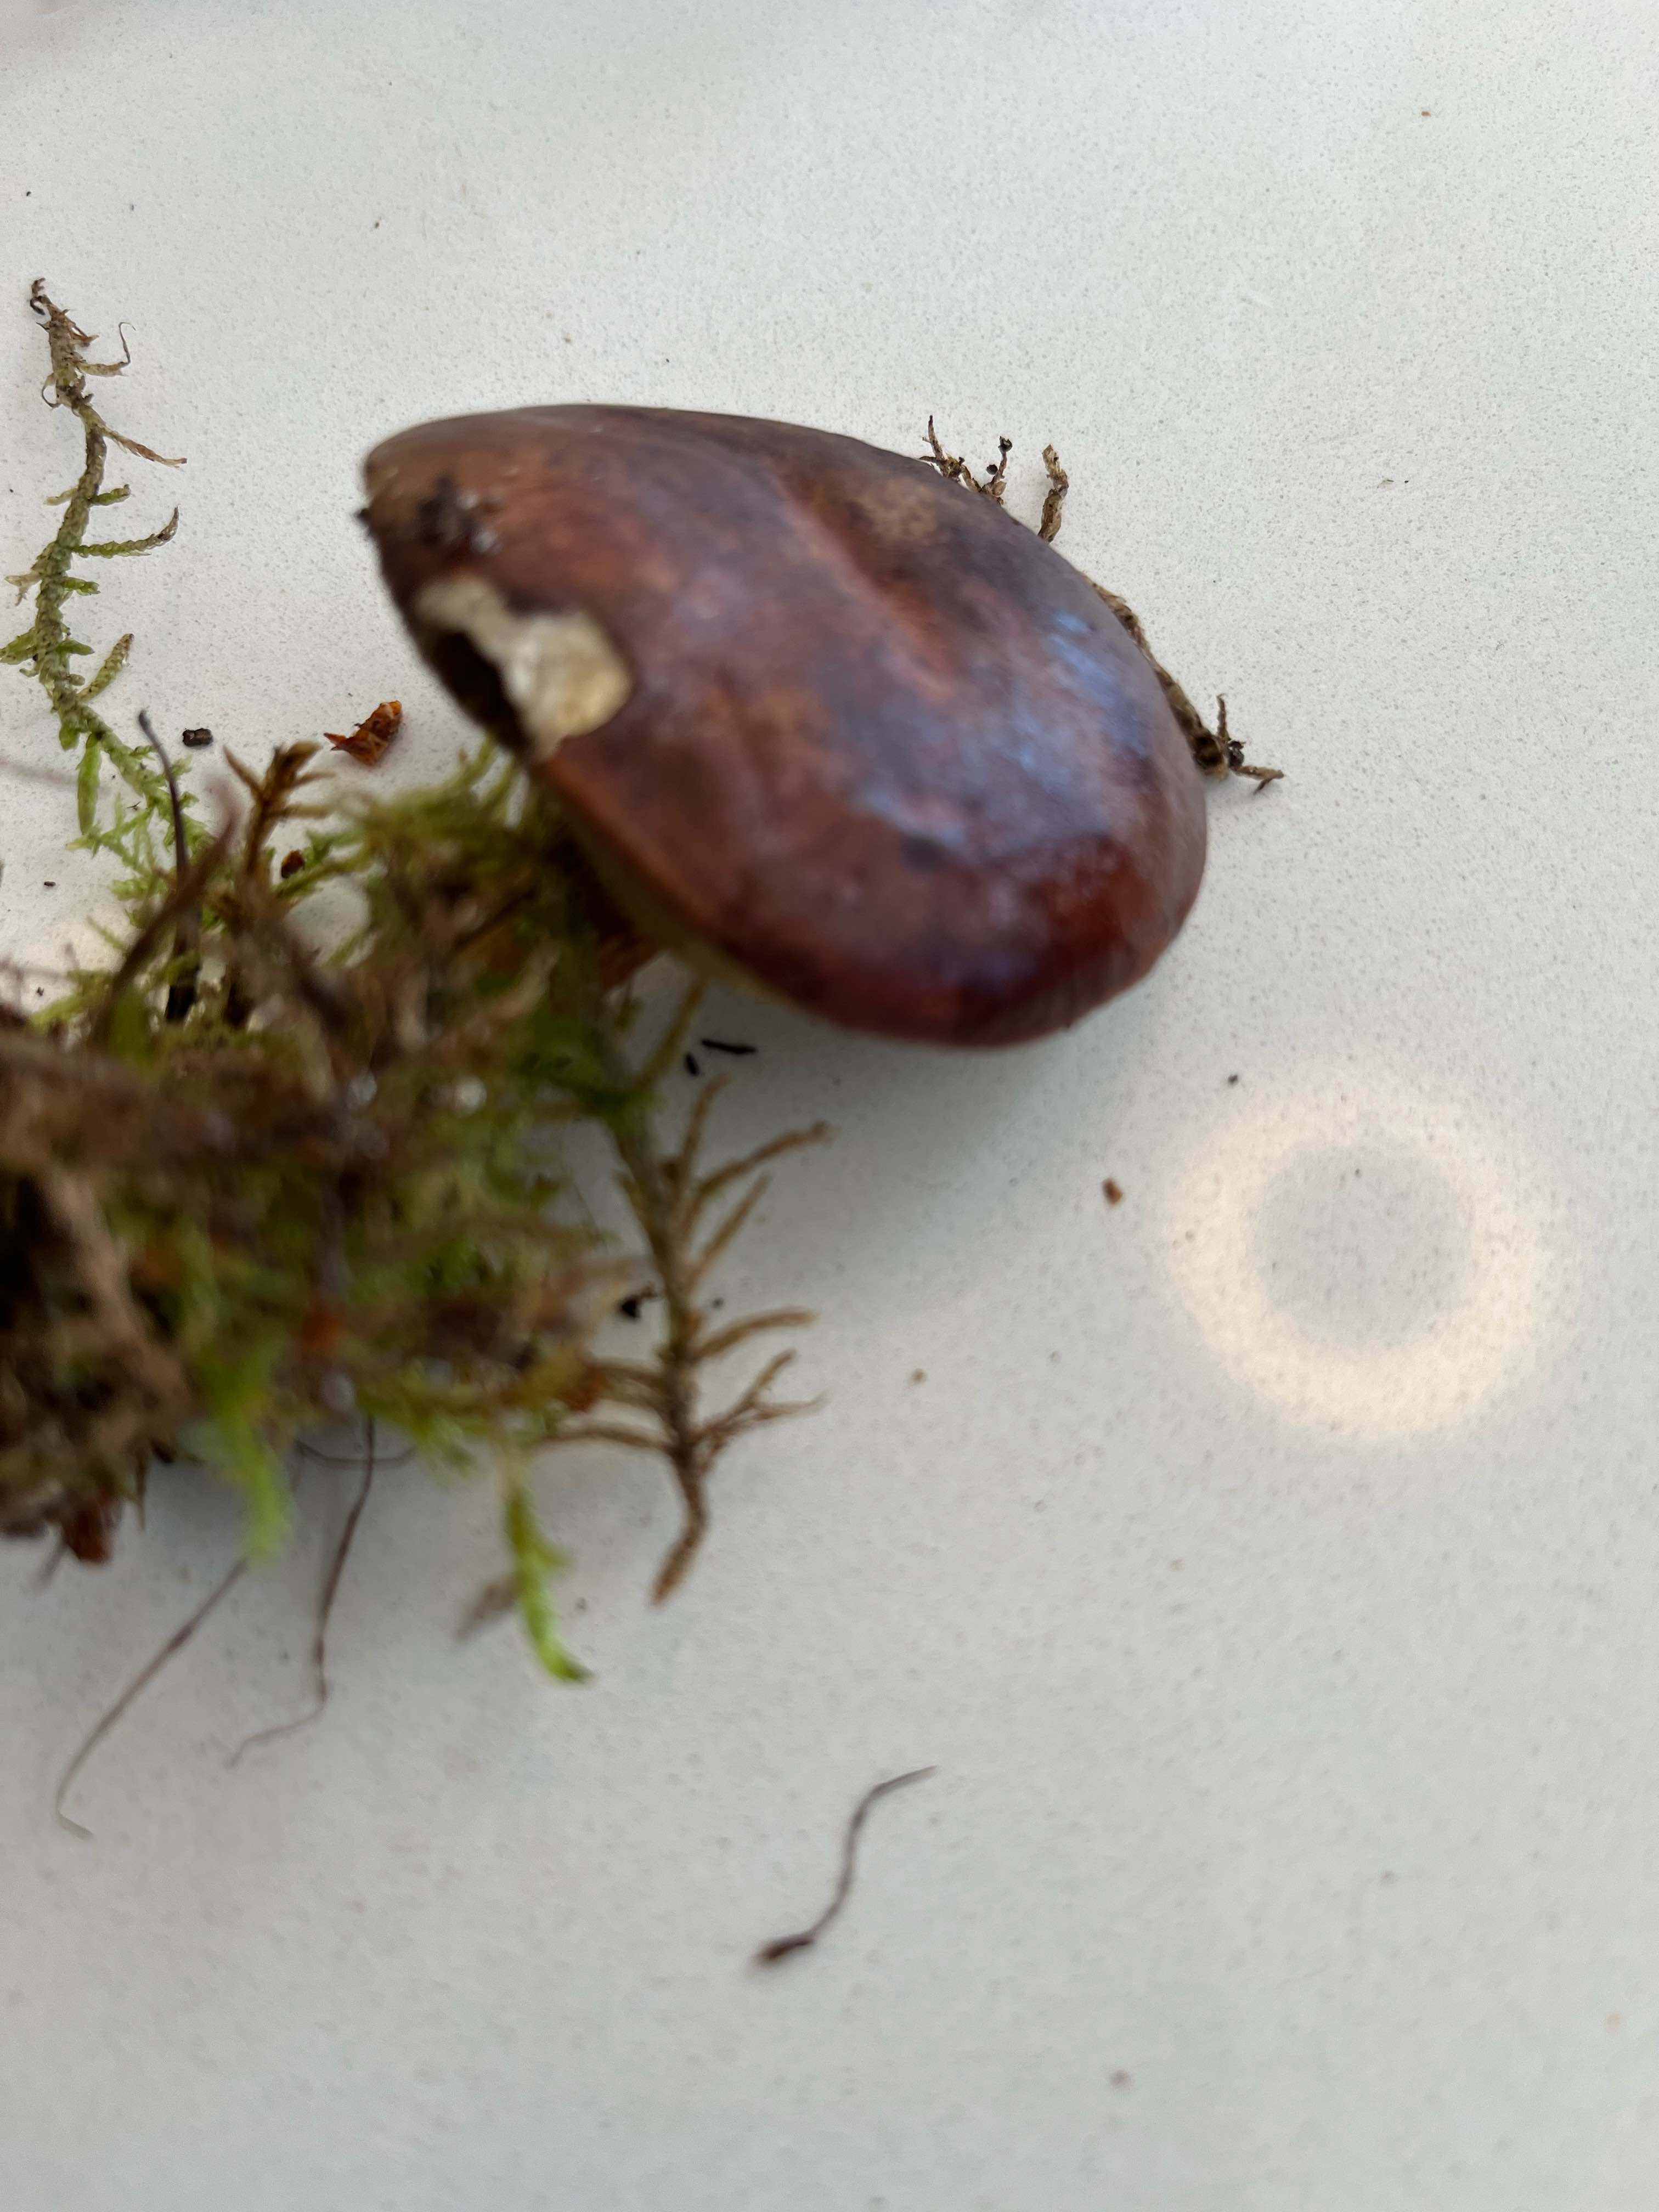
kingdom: Fungi
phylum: Basidiomycota
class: Agaricomycetes
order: Boletales
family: Boletaceae
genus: Imleria
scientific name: Imleria badia
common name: brunstokket rørhat
